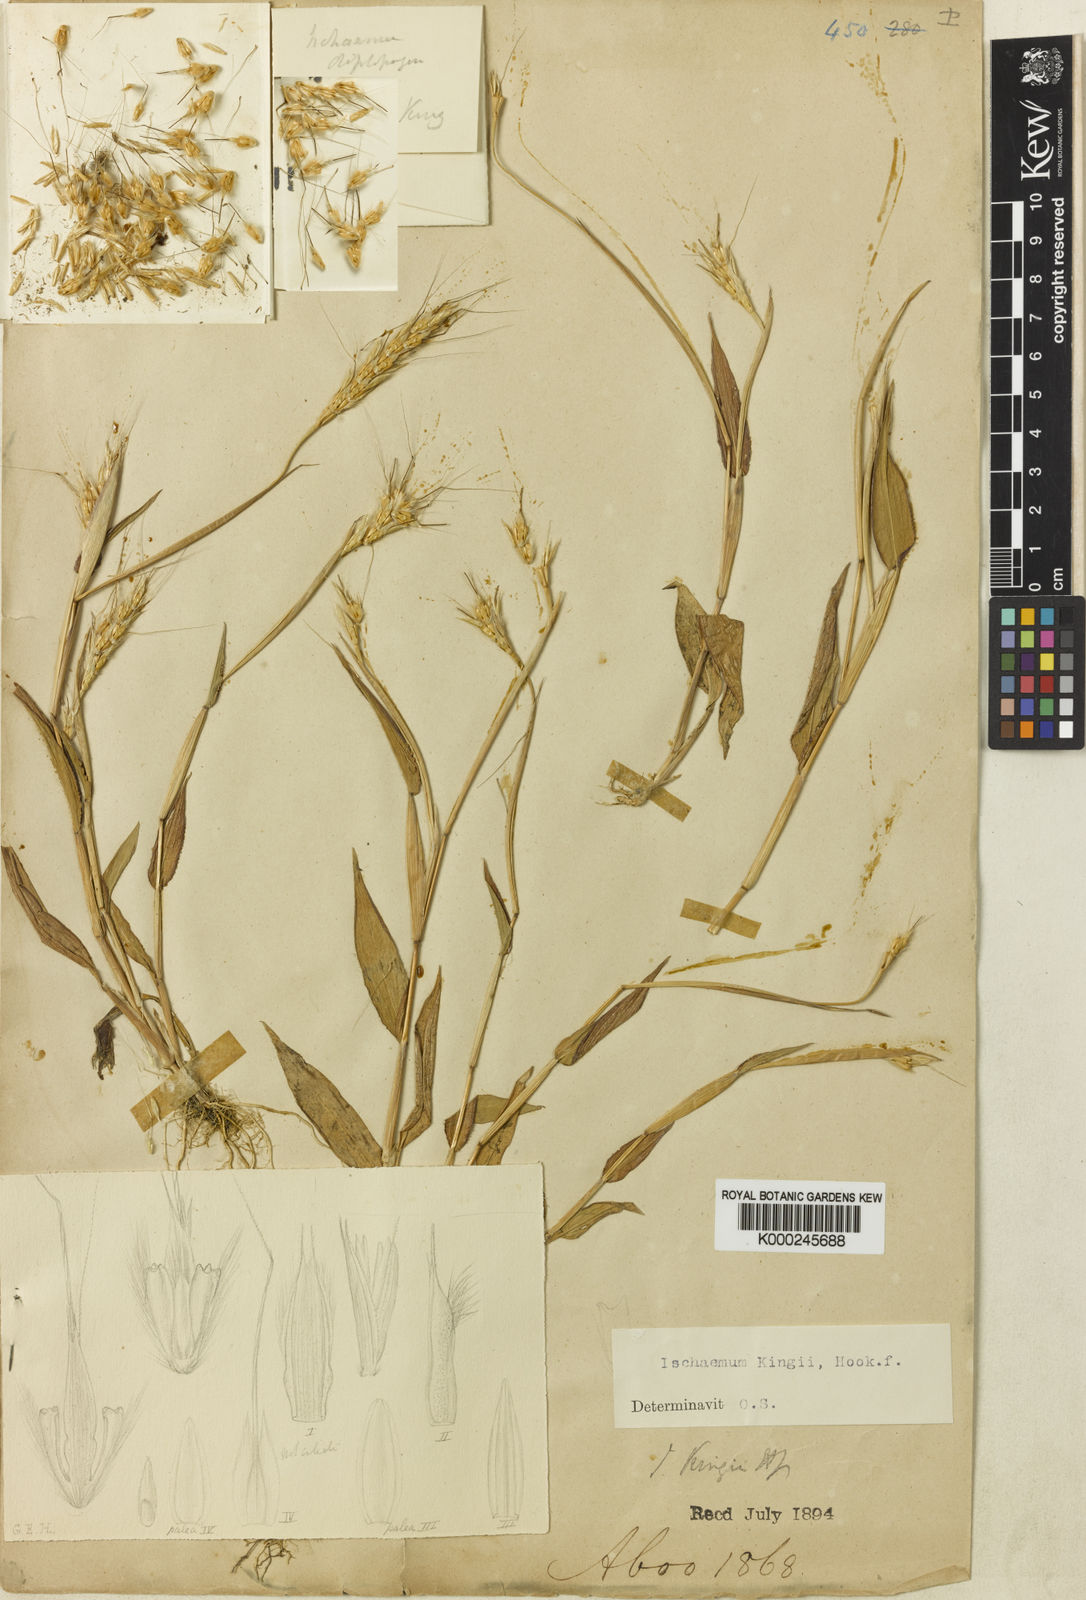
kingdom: Plantae
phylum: Tracheophyta
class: Liliopsida
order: Poales
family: Poaceae
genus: Ischaemum
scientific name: Ischaemum kingii
